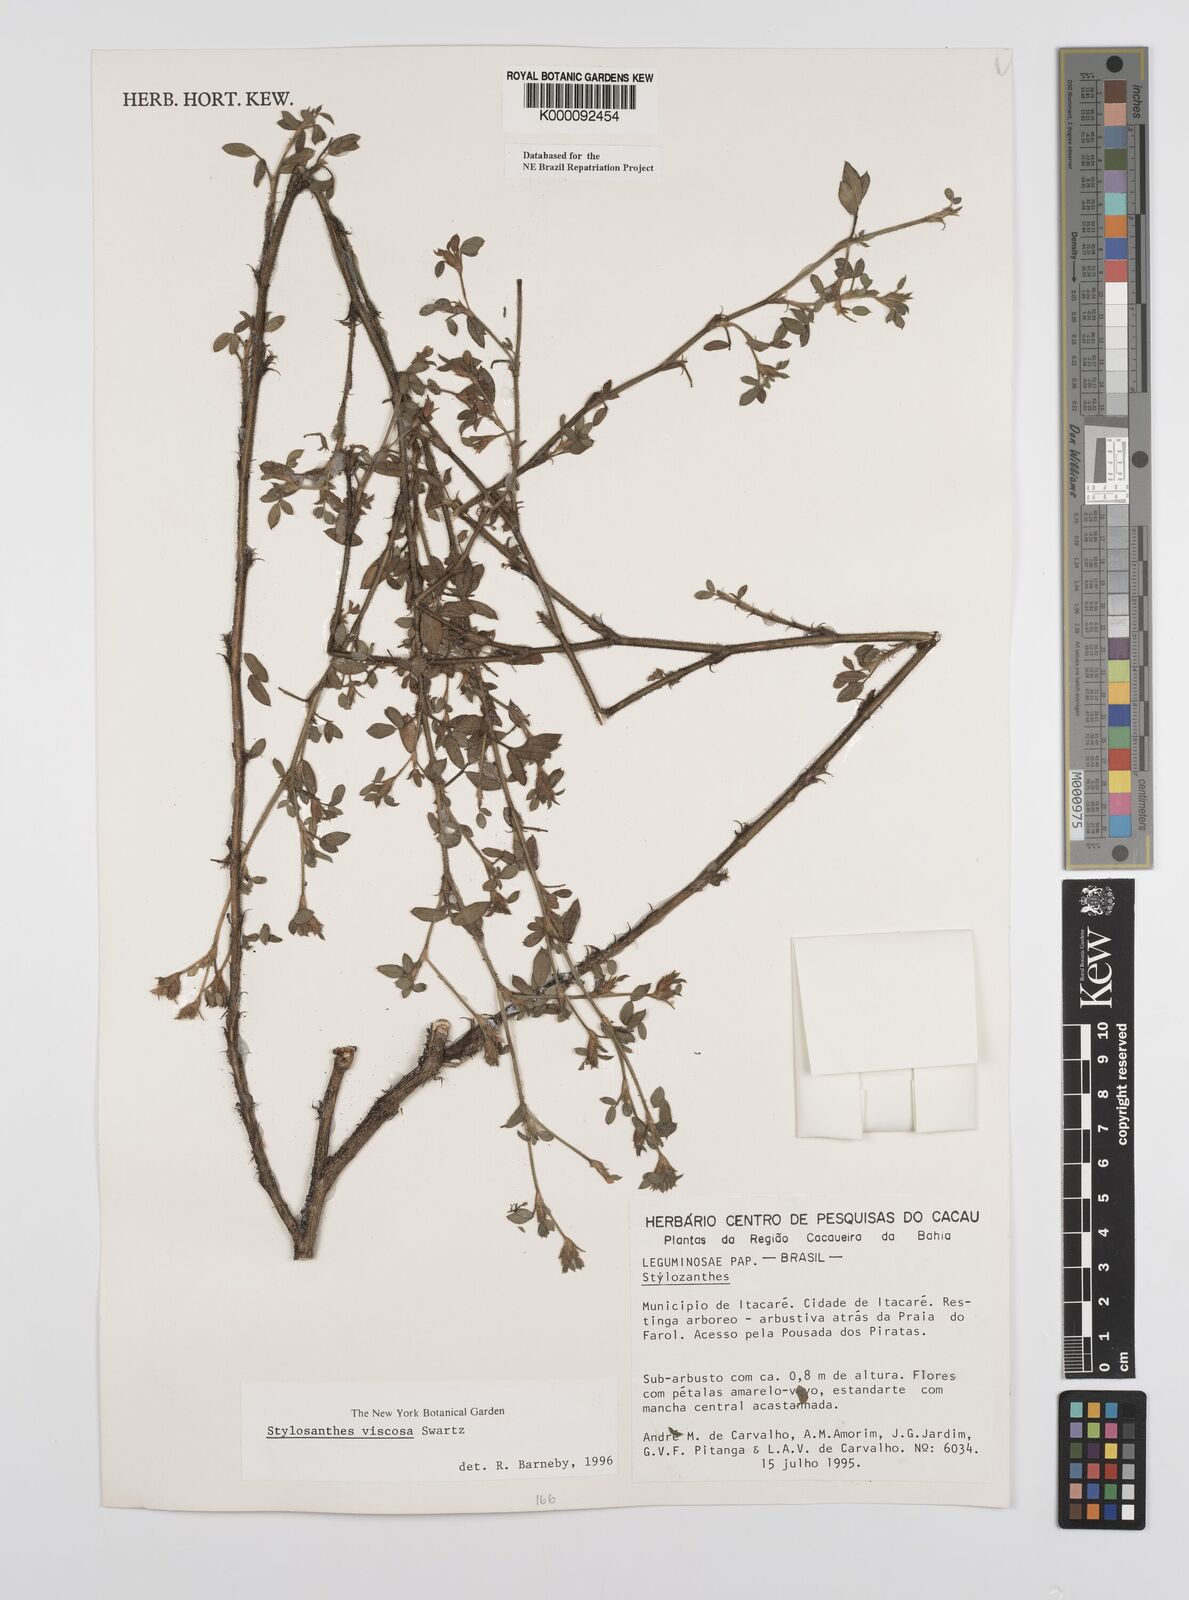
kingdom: Plantae
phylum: Tracheophyta
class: Magnoliopsida
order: Fabales
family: Fabaceae
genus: Stylosanthes
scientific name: Stylosanthes viscosa
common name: Viscid pencil-flower
